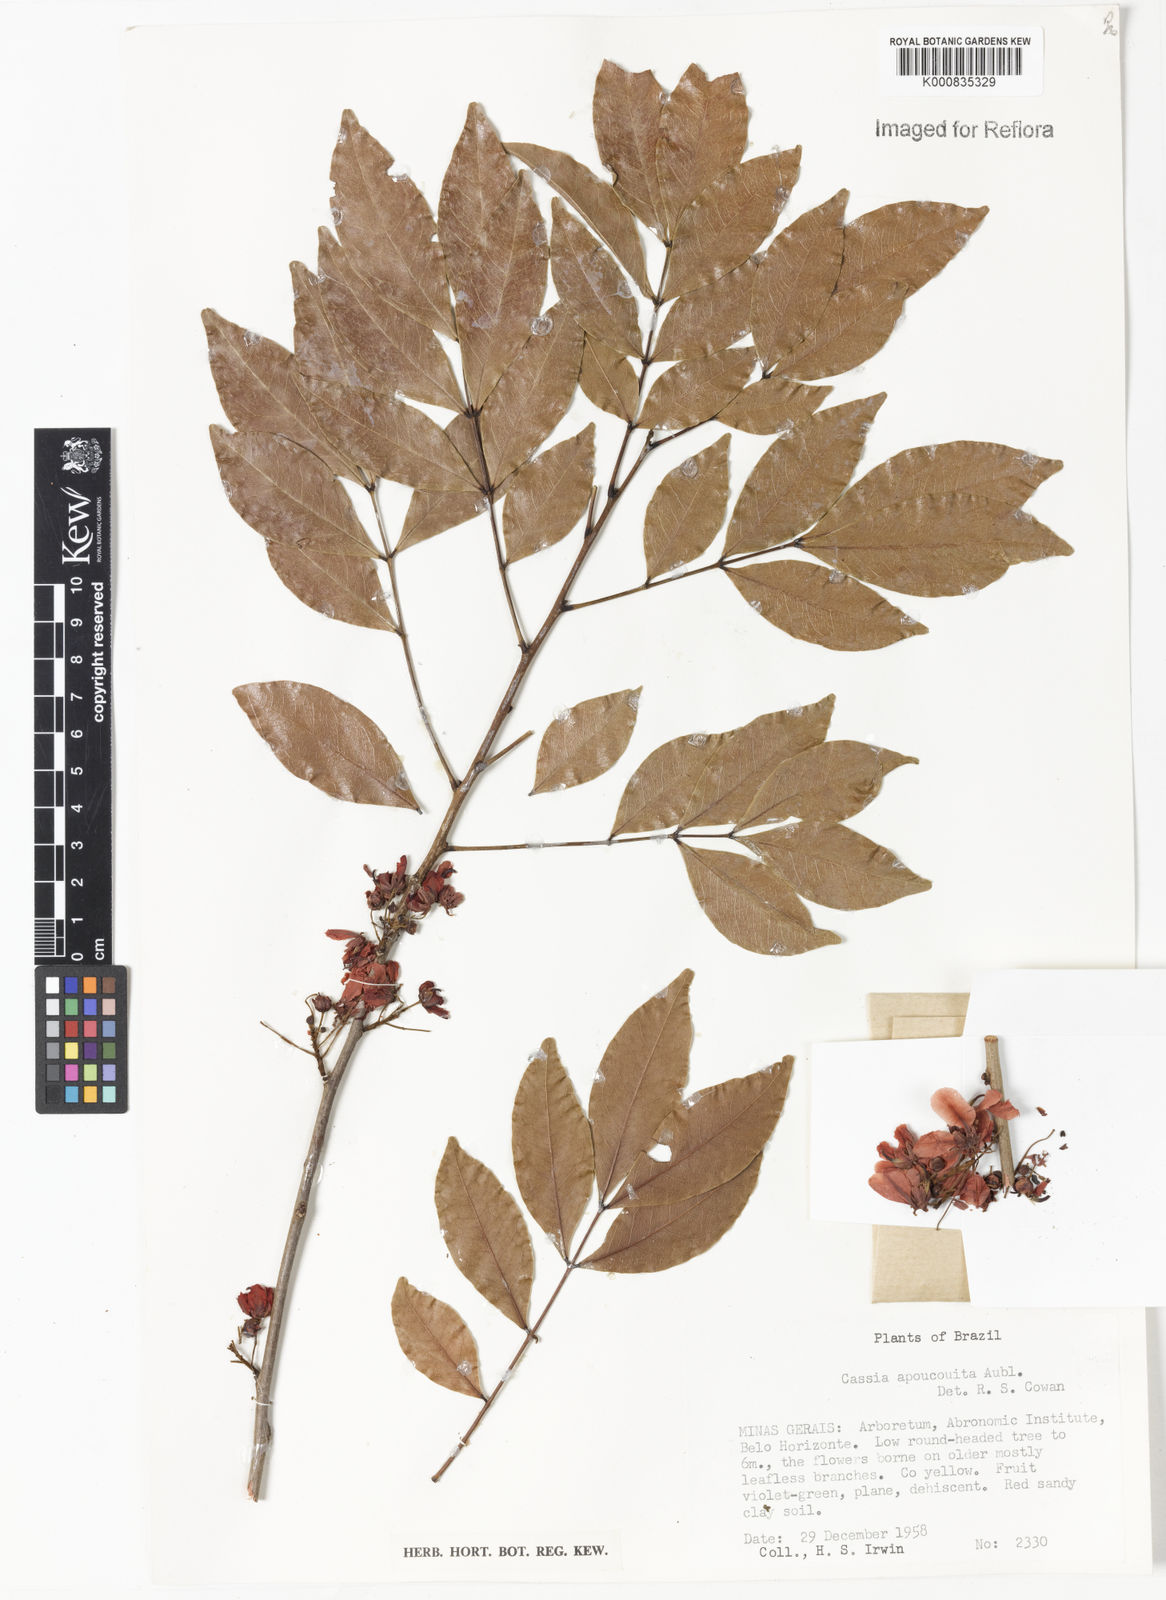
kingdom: Plantae
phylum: Tracheophyta
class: Magnoliopsida
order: Fabales
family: Fabaceae
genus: Chamaecrista
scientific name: Chamaecrista apoucouita
